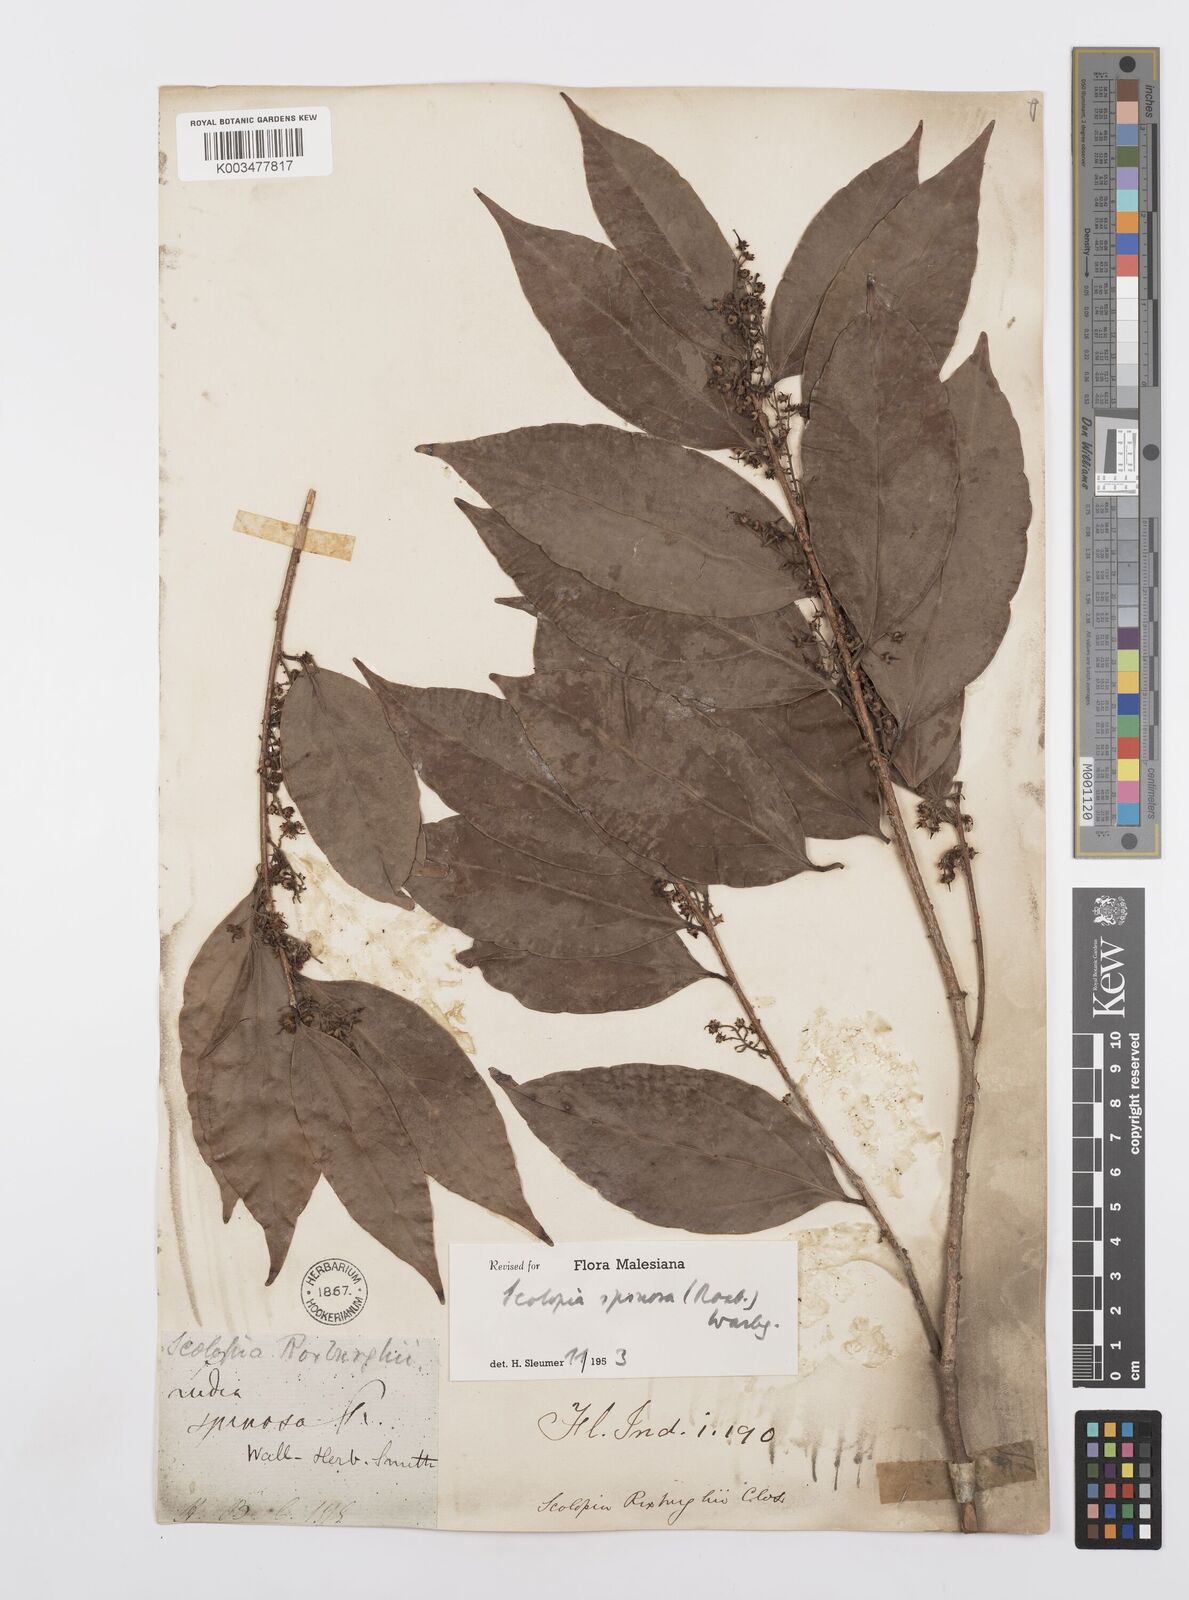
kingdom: Plantae
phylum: Tracheophyta
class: Magnoliopsida
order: Malpighiales
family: Salicaceae
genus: Scolopia
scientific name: Scolopia spinosa
